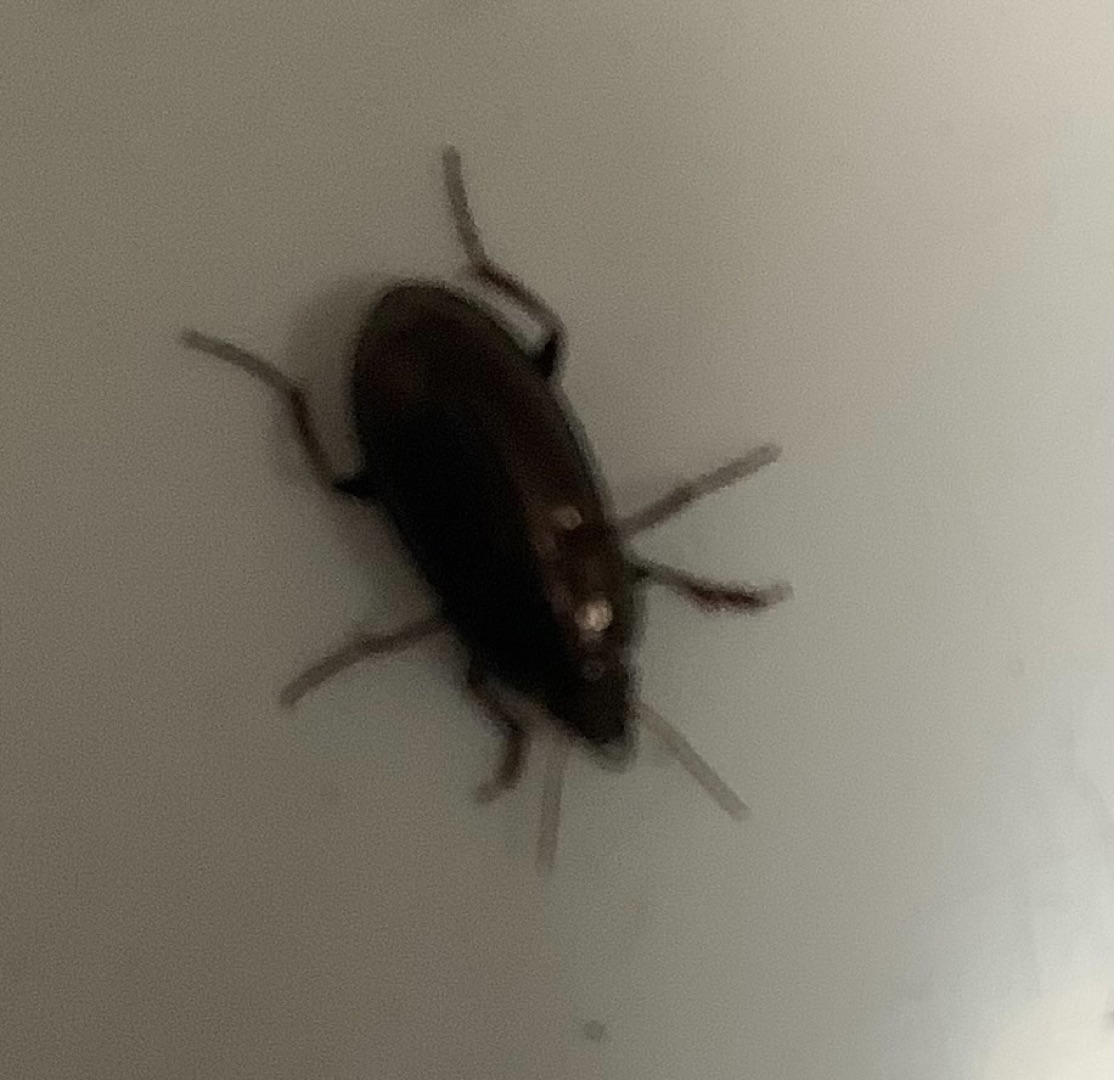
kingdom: Animalia
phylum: Arthropoda
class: Insecta
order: Coleoptera
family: Carabidae
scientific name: Carabidae
